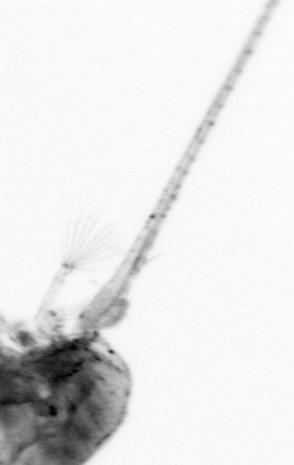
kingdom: Animalia
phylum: Arthropoda
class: Copepoda
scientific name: Copepoda
